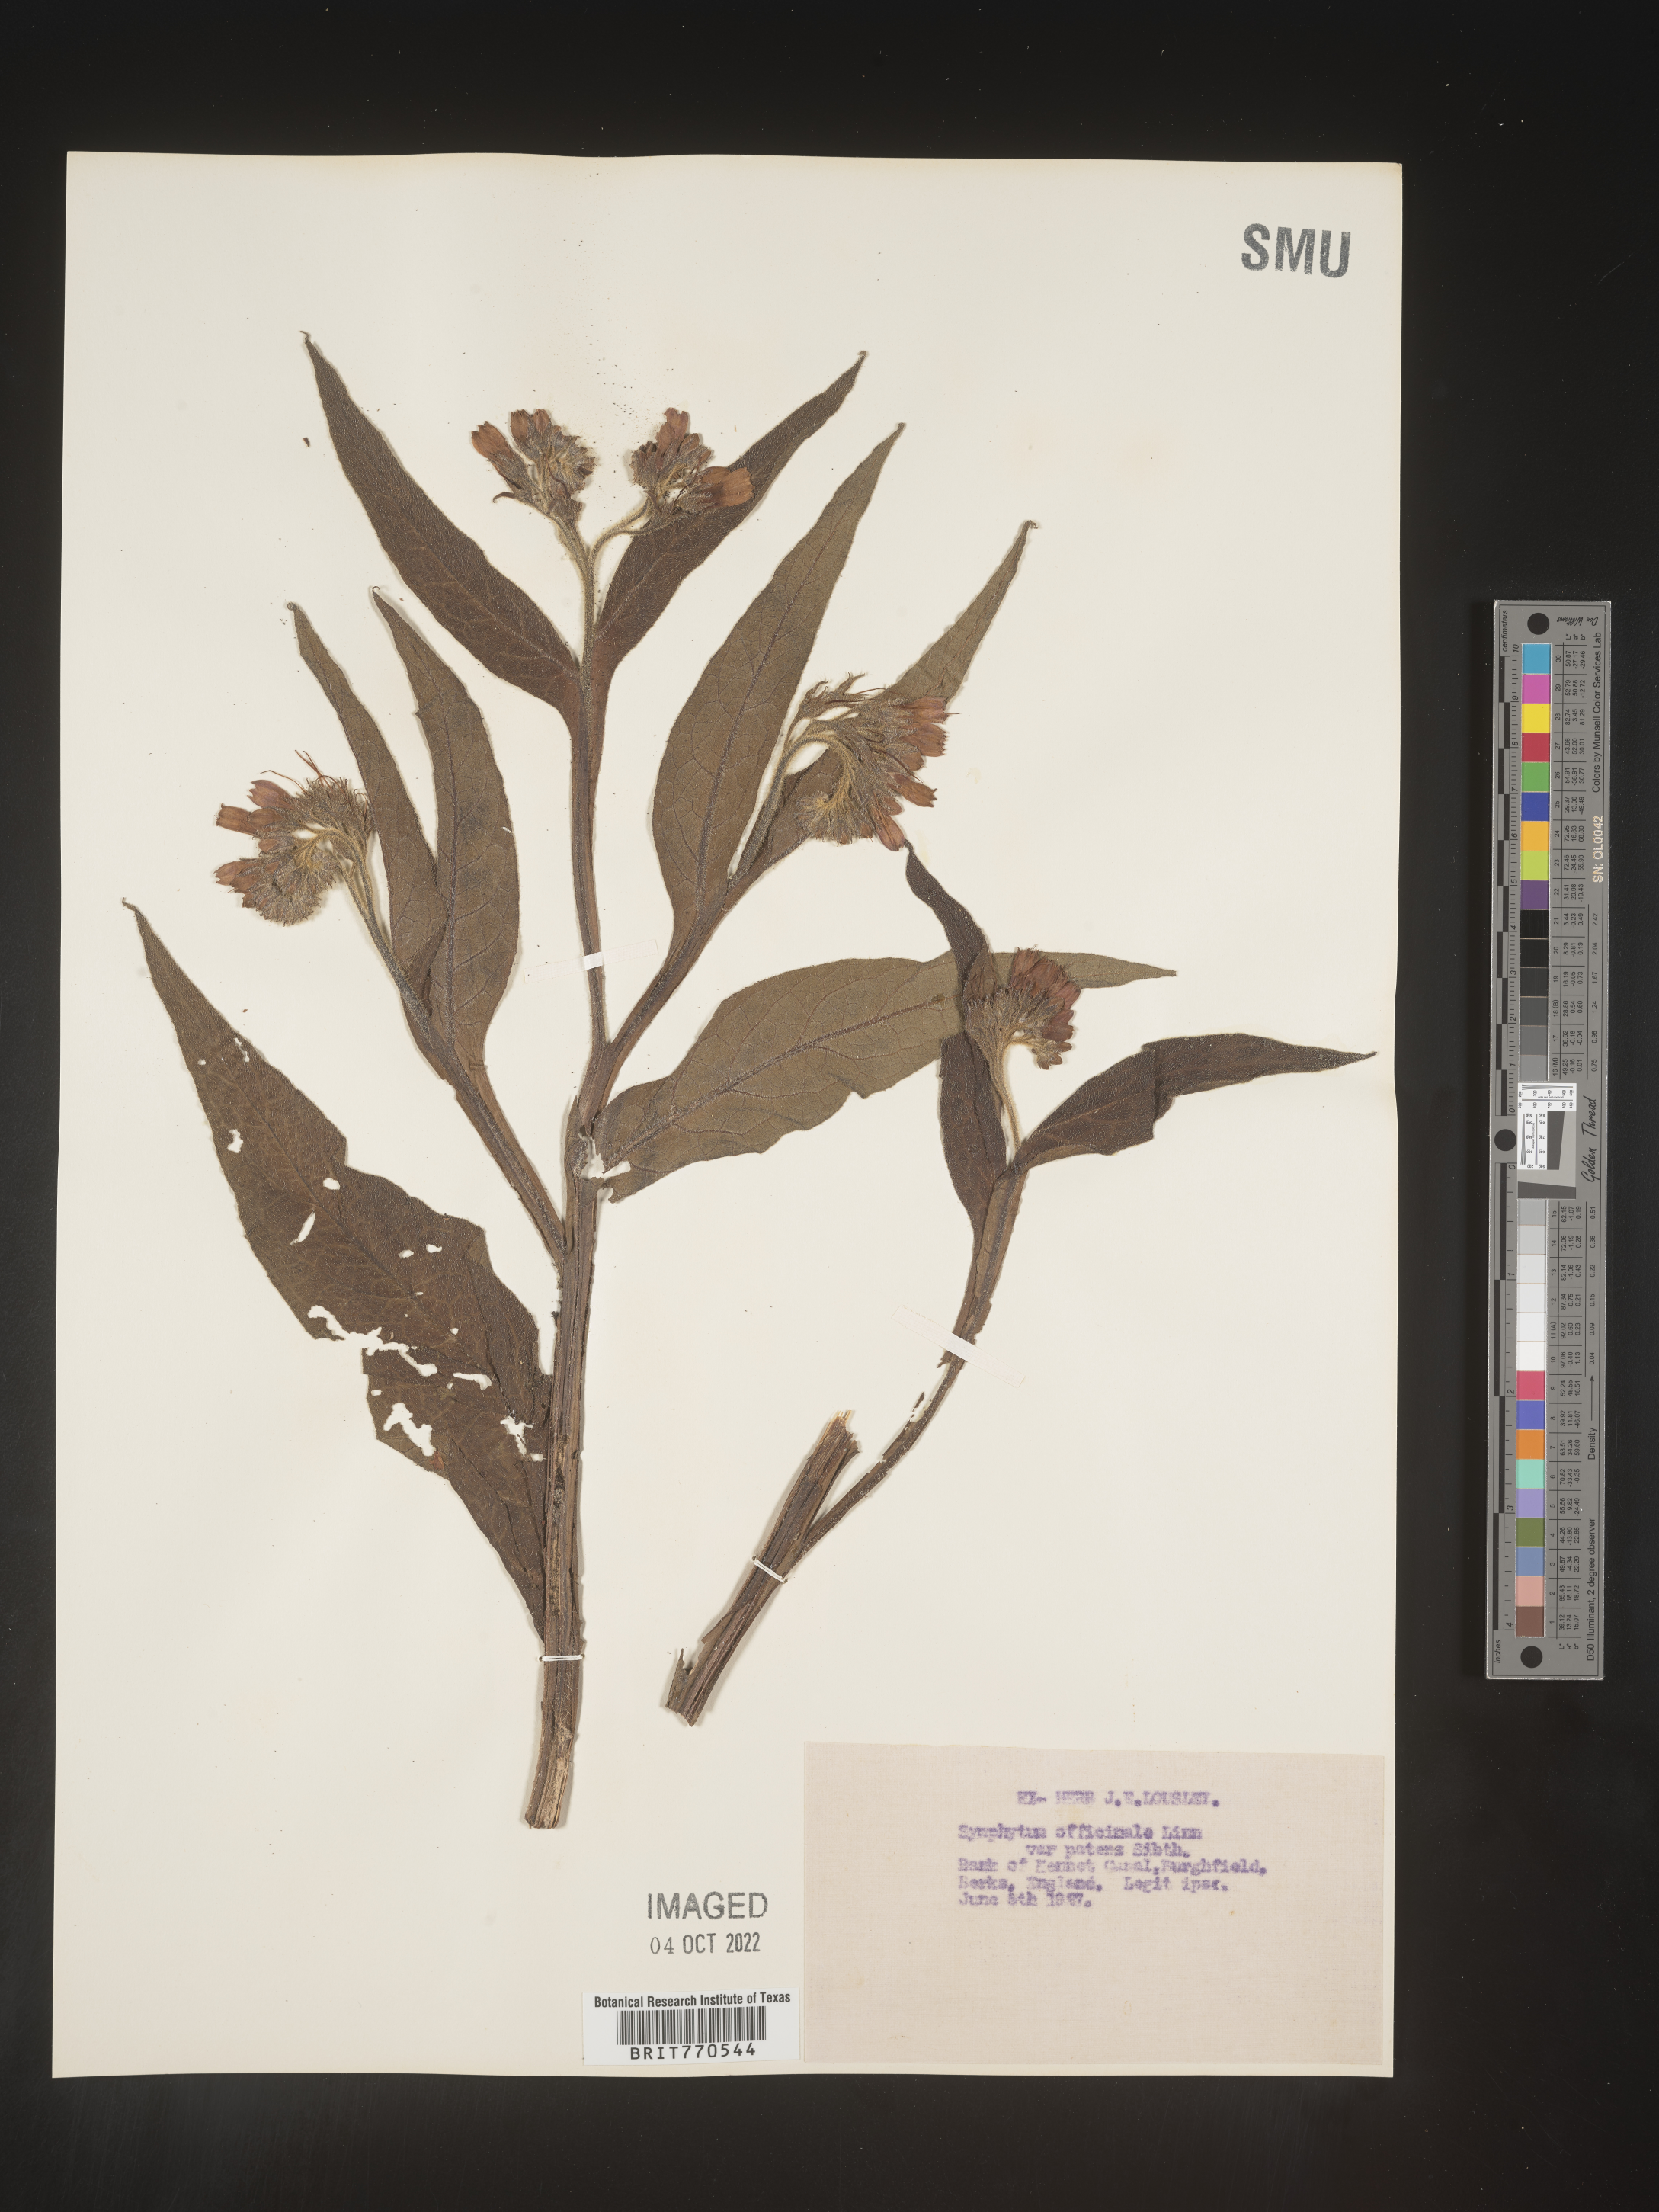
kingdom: Plantae
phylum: Tracheophyta
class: Magnoliopsida
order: Boraginales
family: Boraginaceae
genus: Symphytum
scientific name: Symphytum
